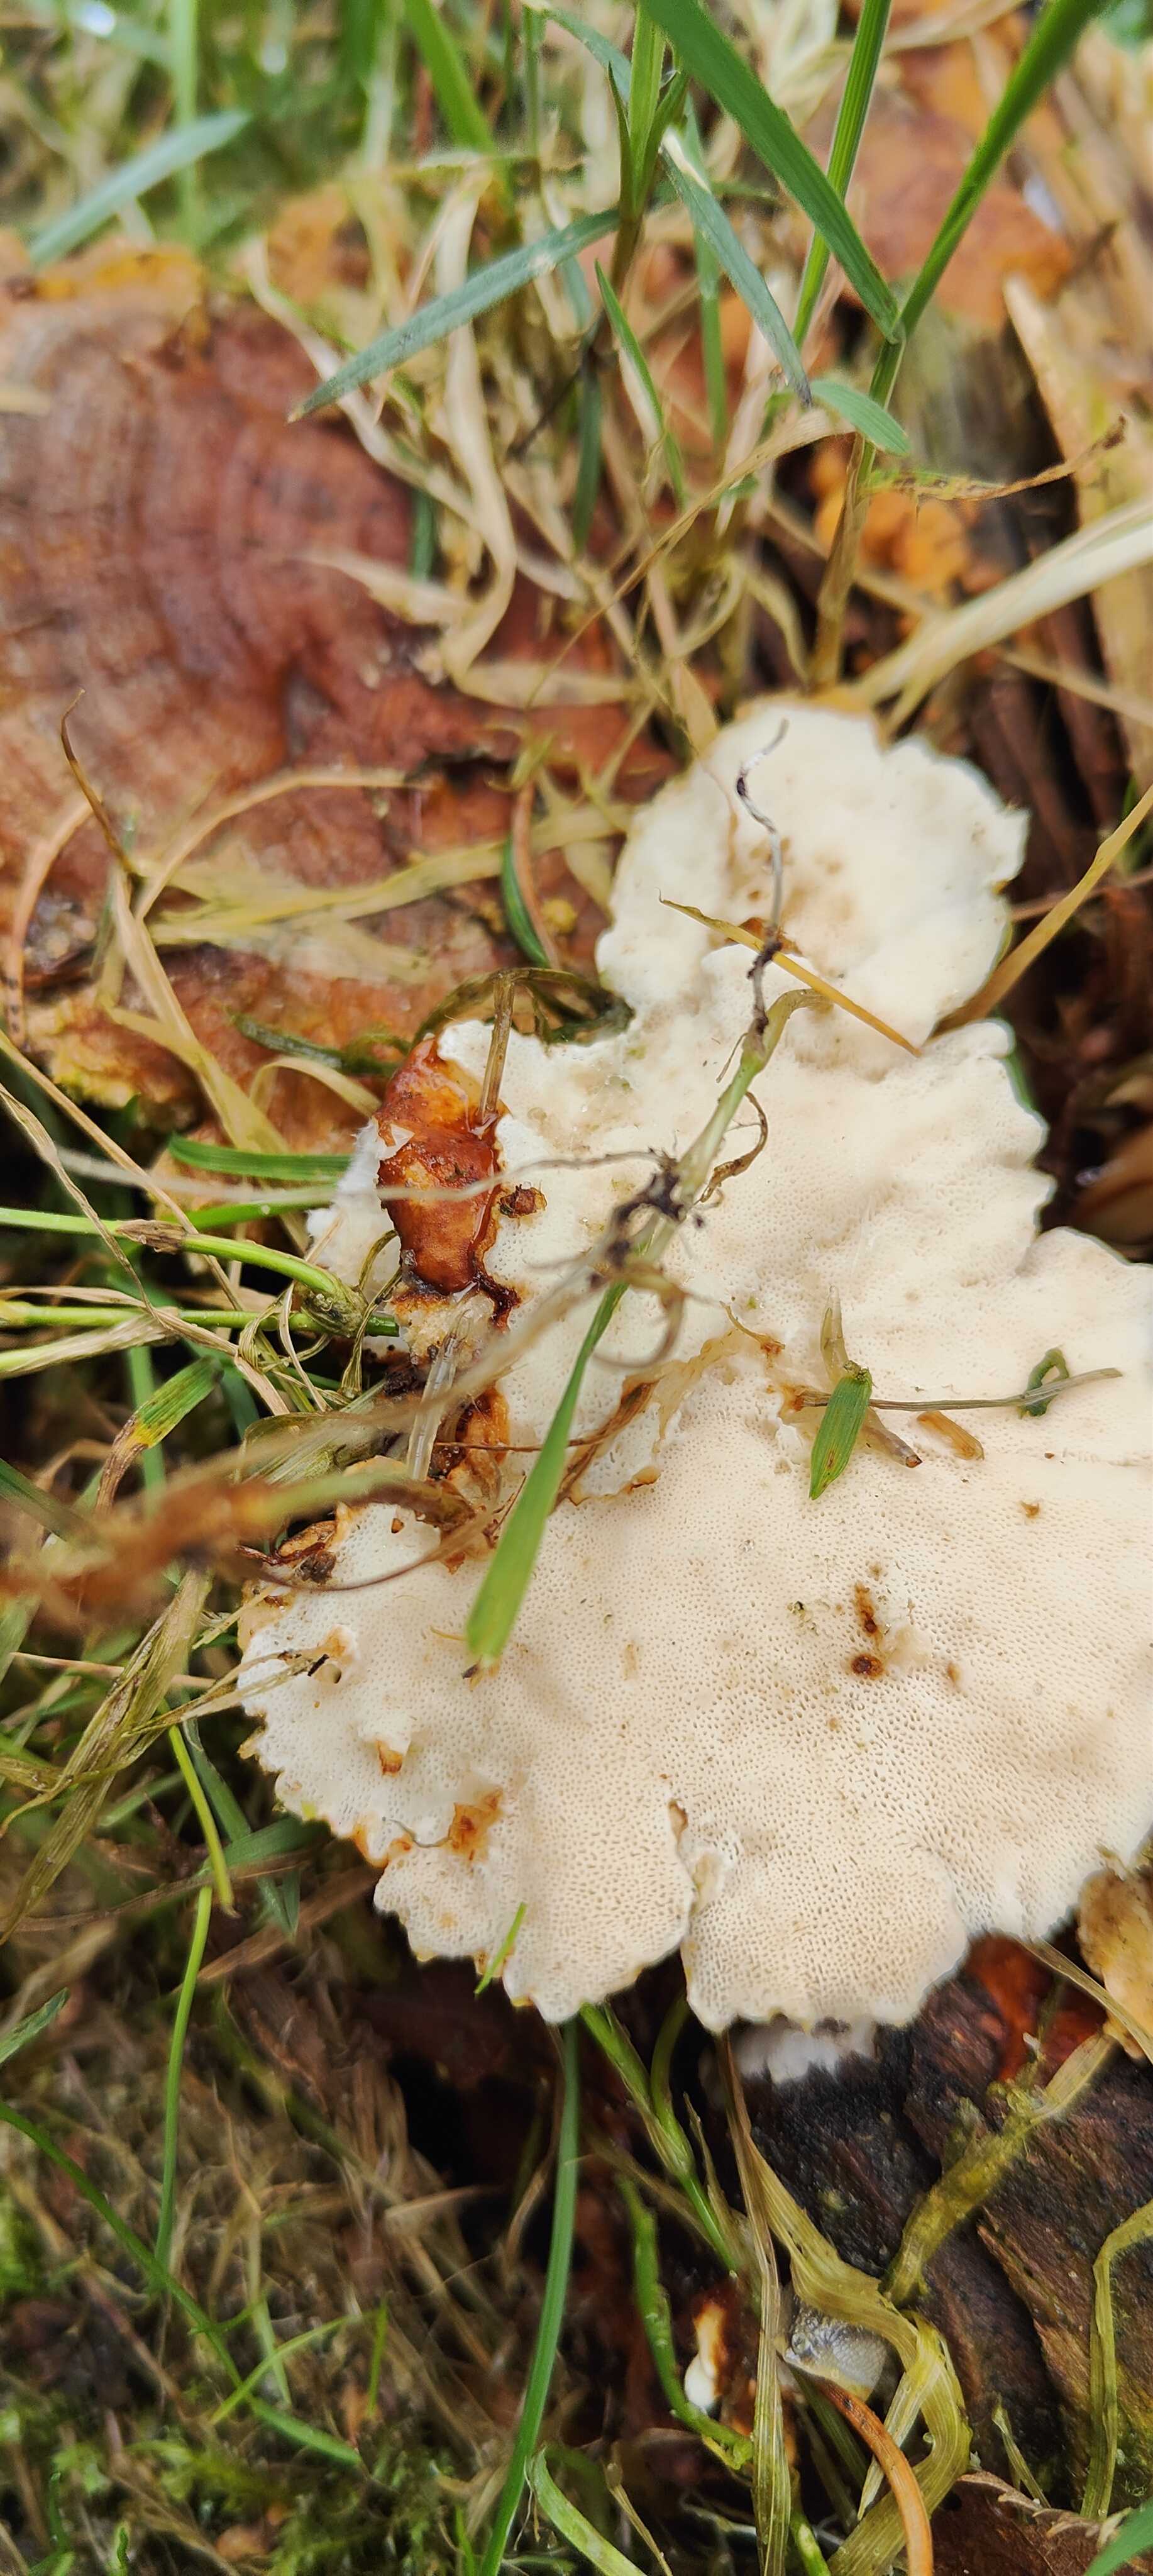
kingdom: Fungi
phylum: Basidiomycota
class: Agaricomycetes
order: Polyporales
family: Polyporaceae
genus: Trametes
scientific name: Trametes ochracea
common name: bæltet læderporesvamp
